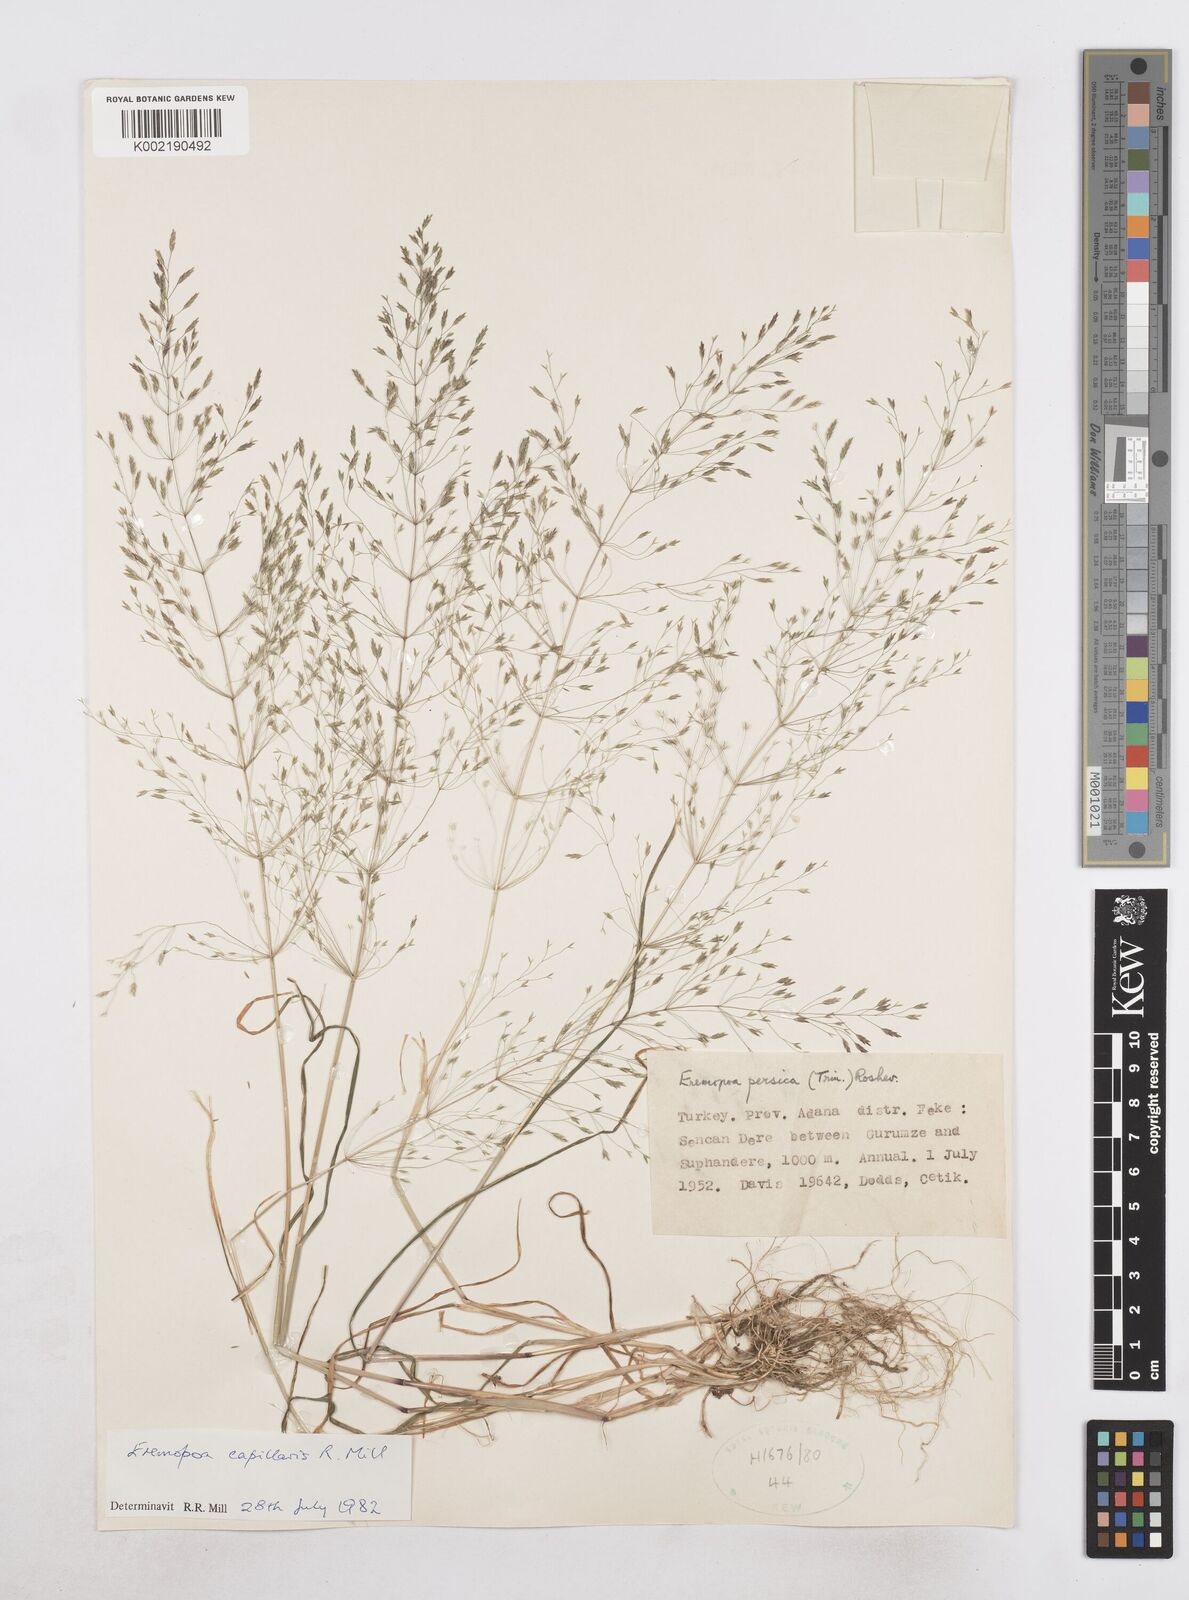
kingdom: Plantae
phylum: Tracheophyta
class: Liliopsida
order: Poales
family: Poaceae
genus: Poa
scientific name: Poa millii
